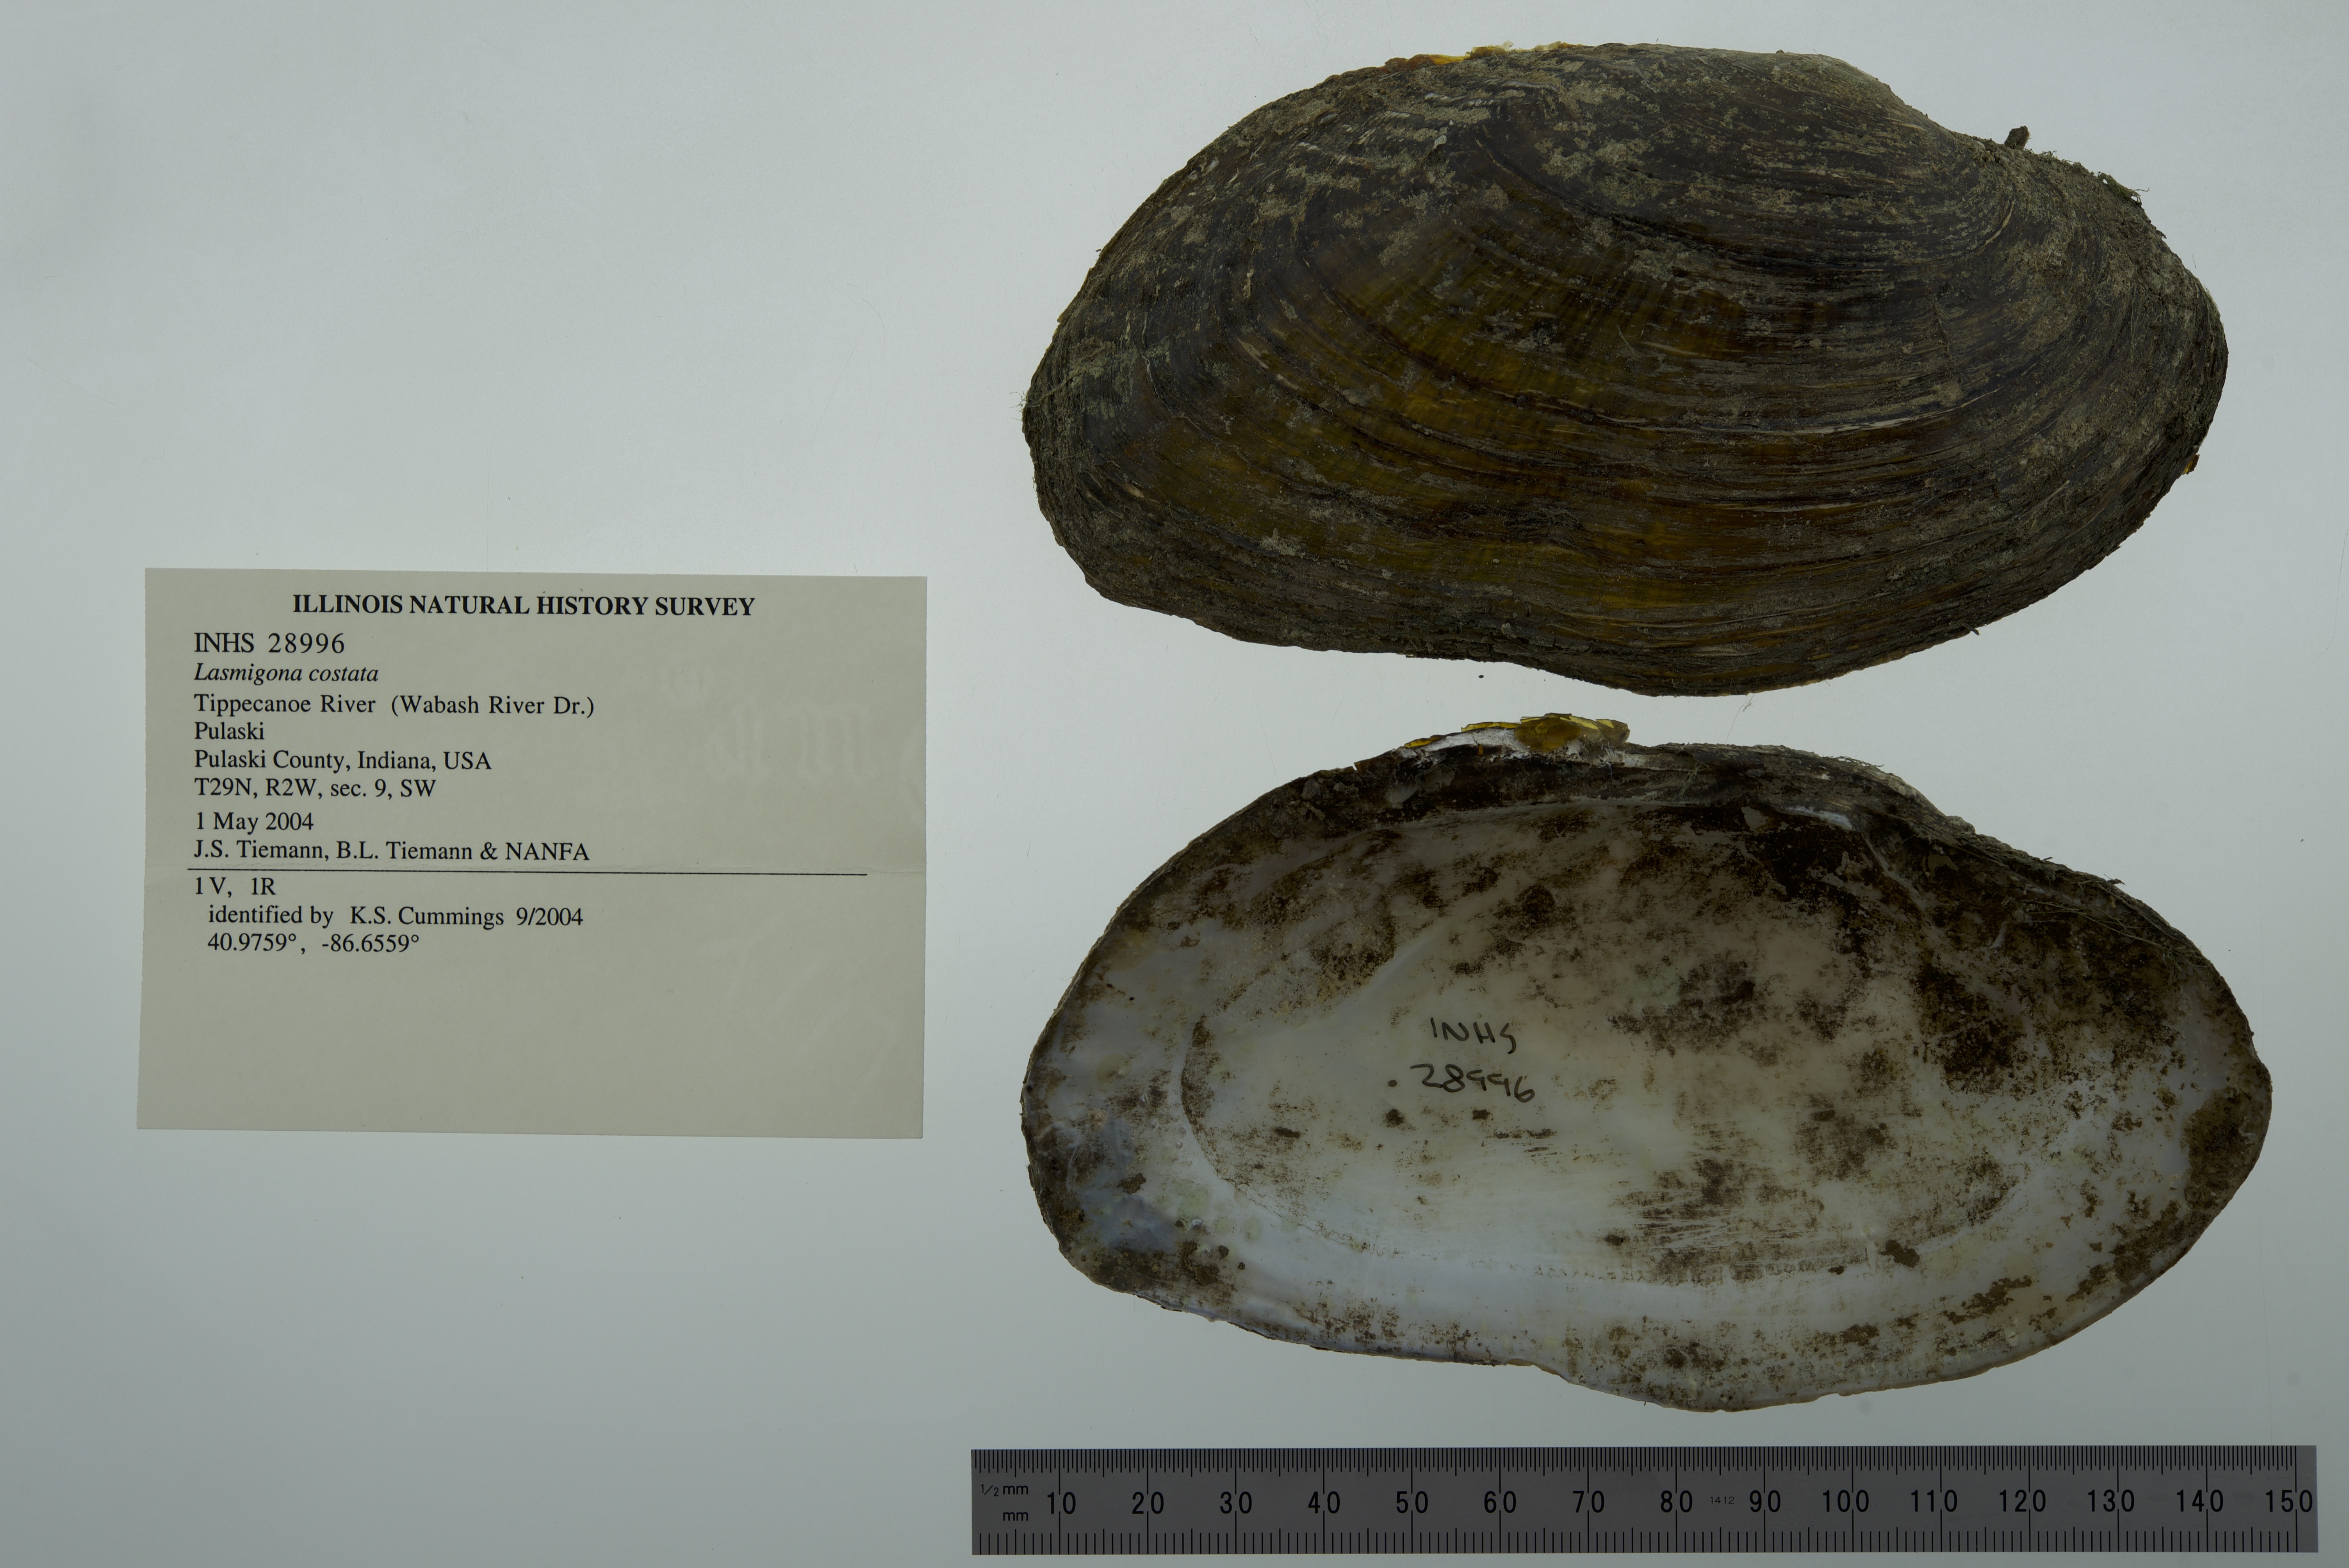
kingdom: Animalia
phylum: Mollusca
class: Bivalvia
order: Unionida
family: Unionidae
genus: Lasmigona
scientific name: Lasmigona costata
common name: Flutedshell
